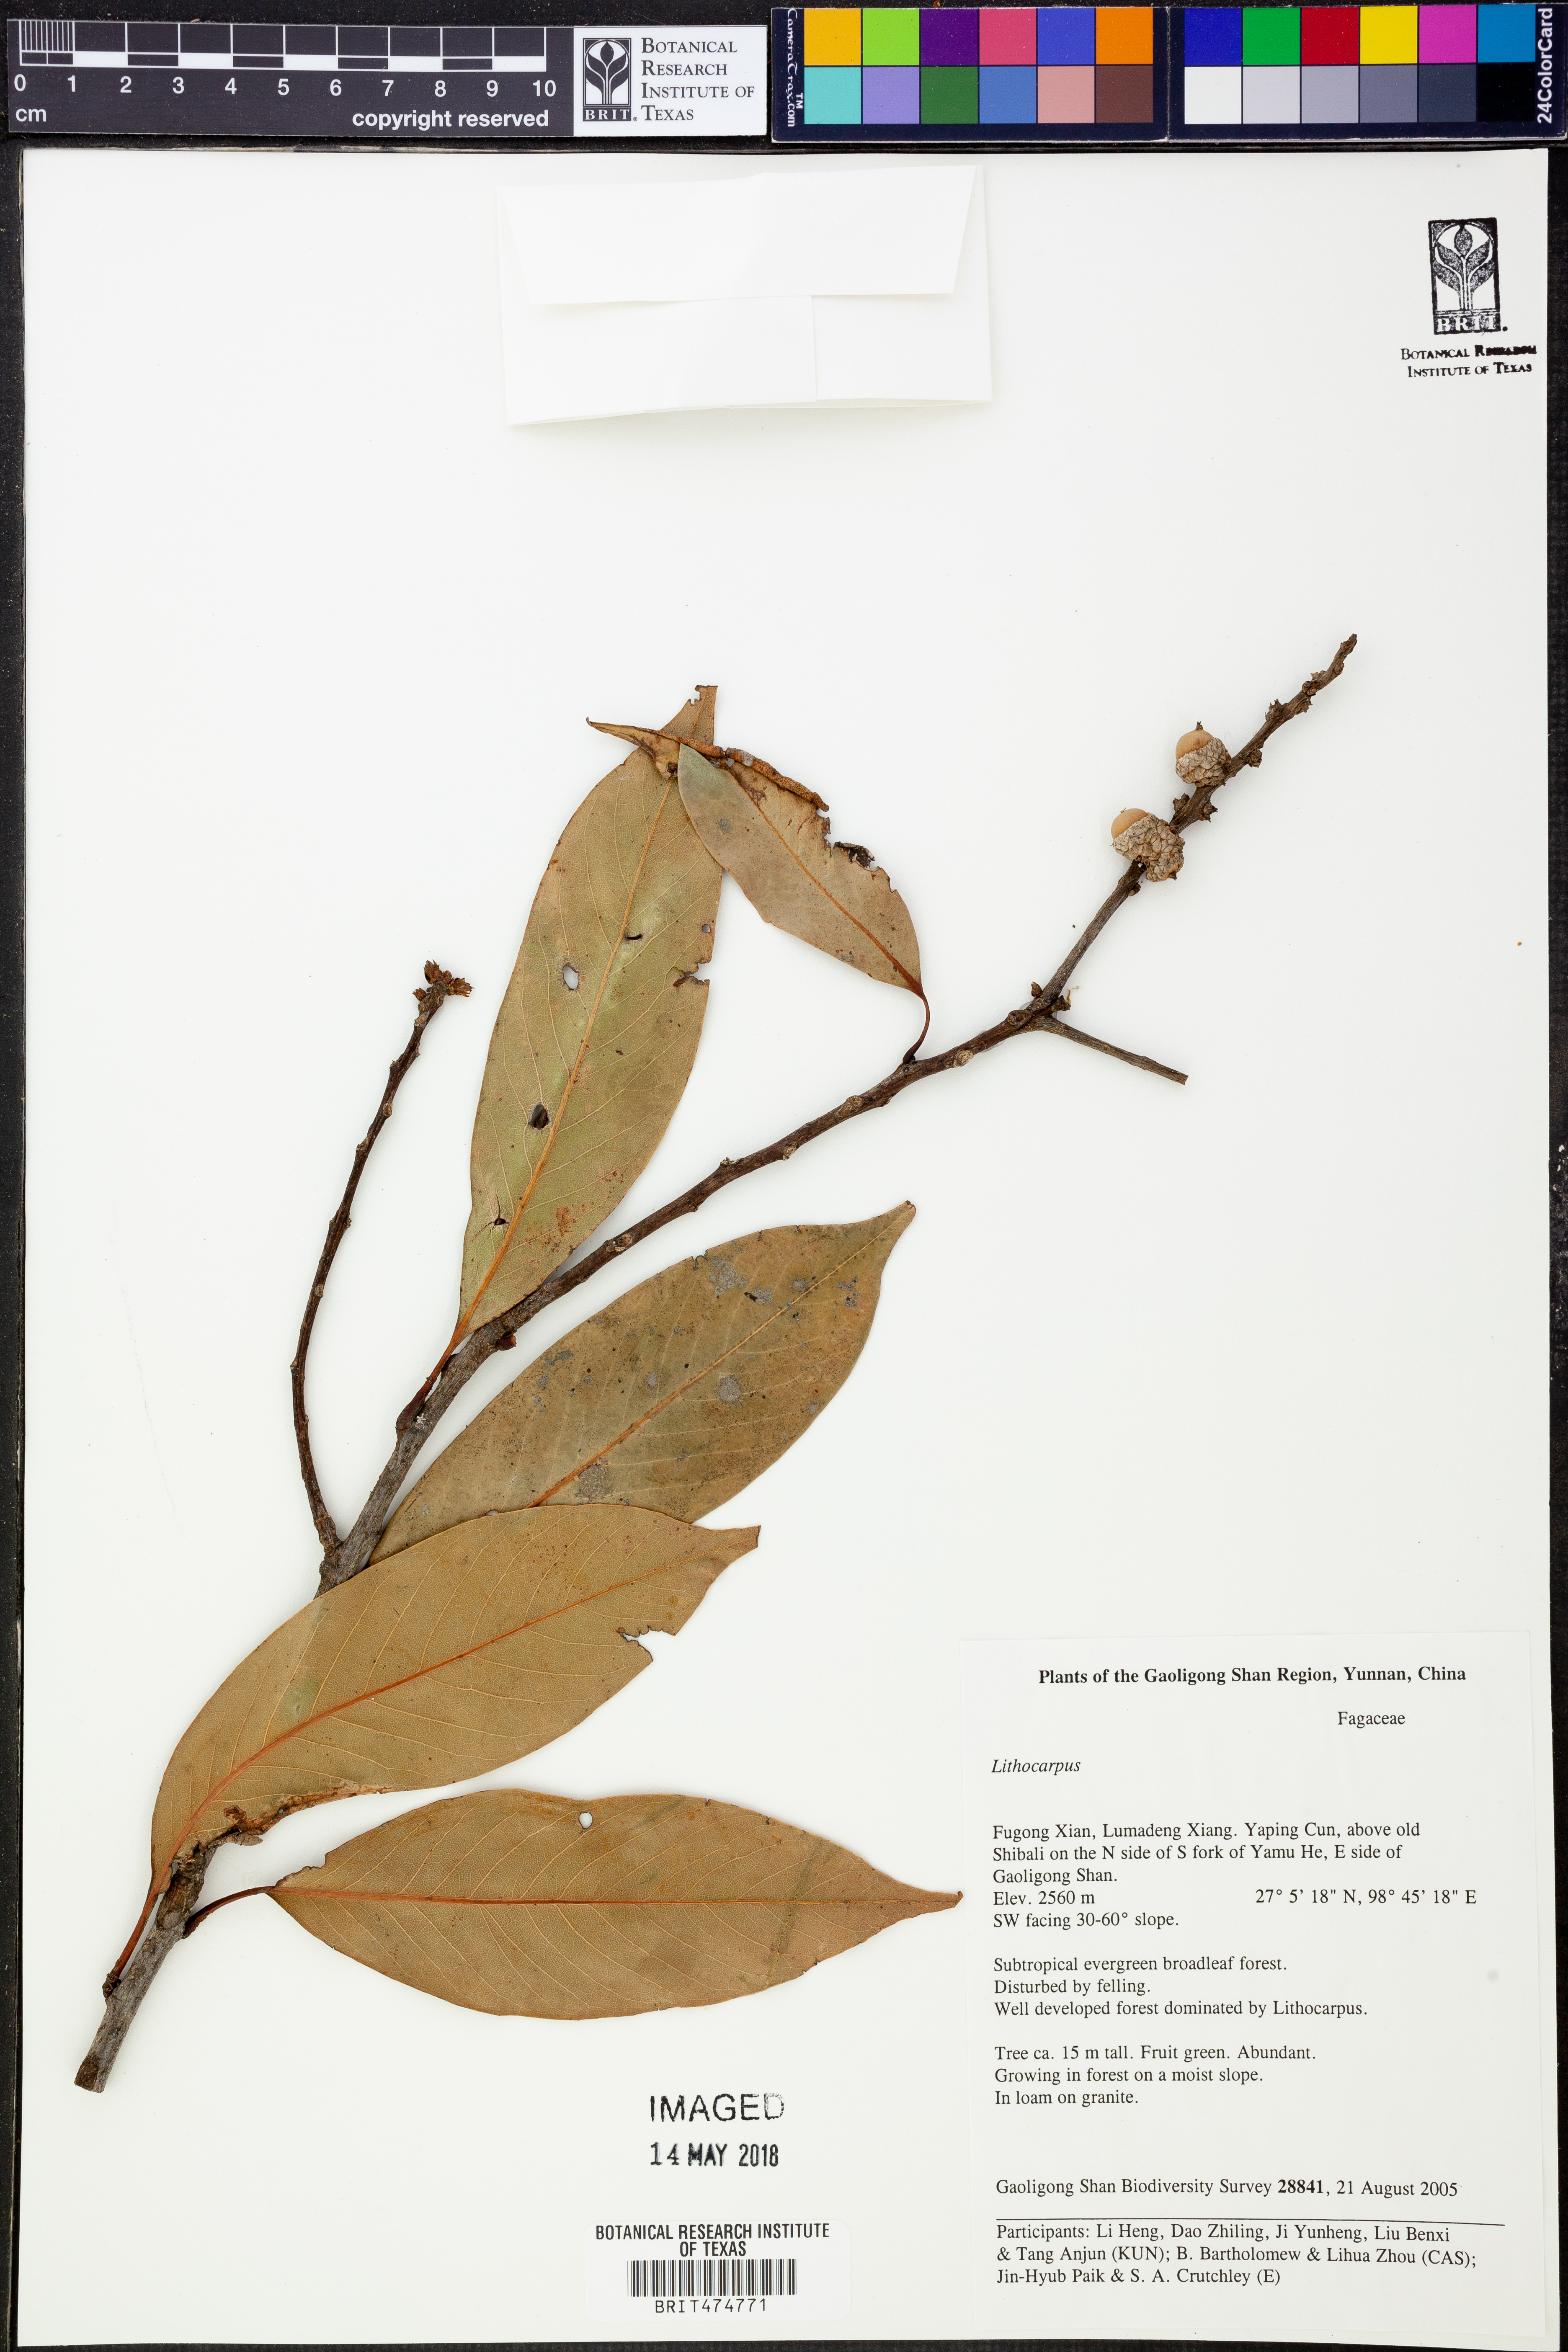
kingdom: Plantae
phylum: Tracheophyta
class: Magnoliopsida
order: Fagales
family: Fagaceae
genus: Lithocarpus
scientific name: Lithocarpus
